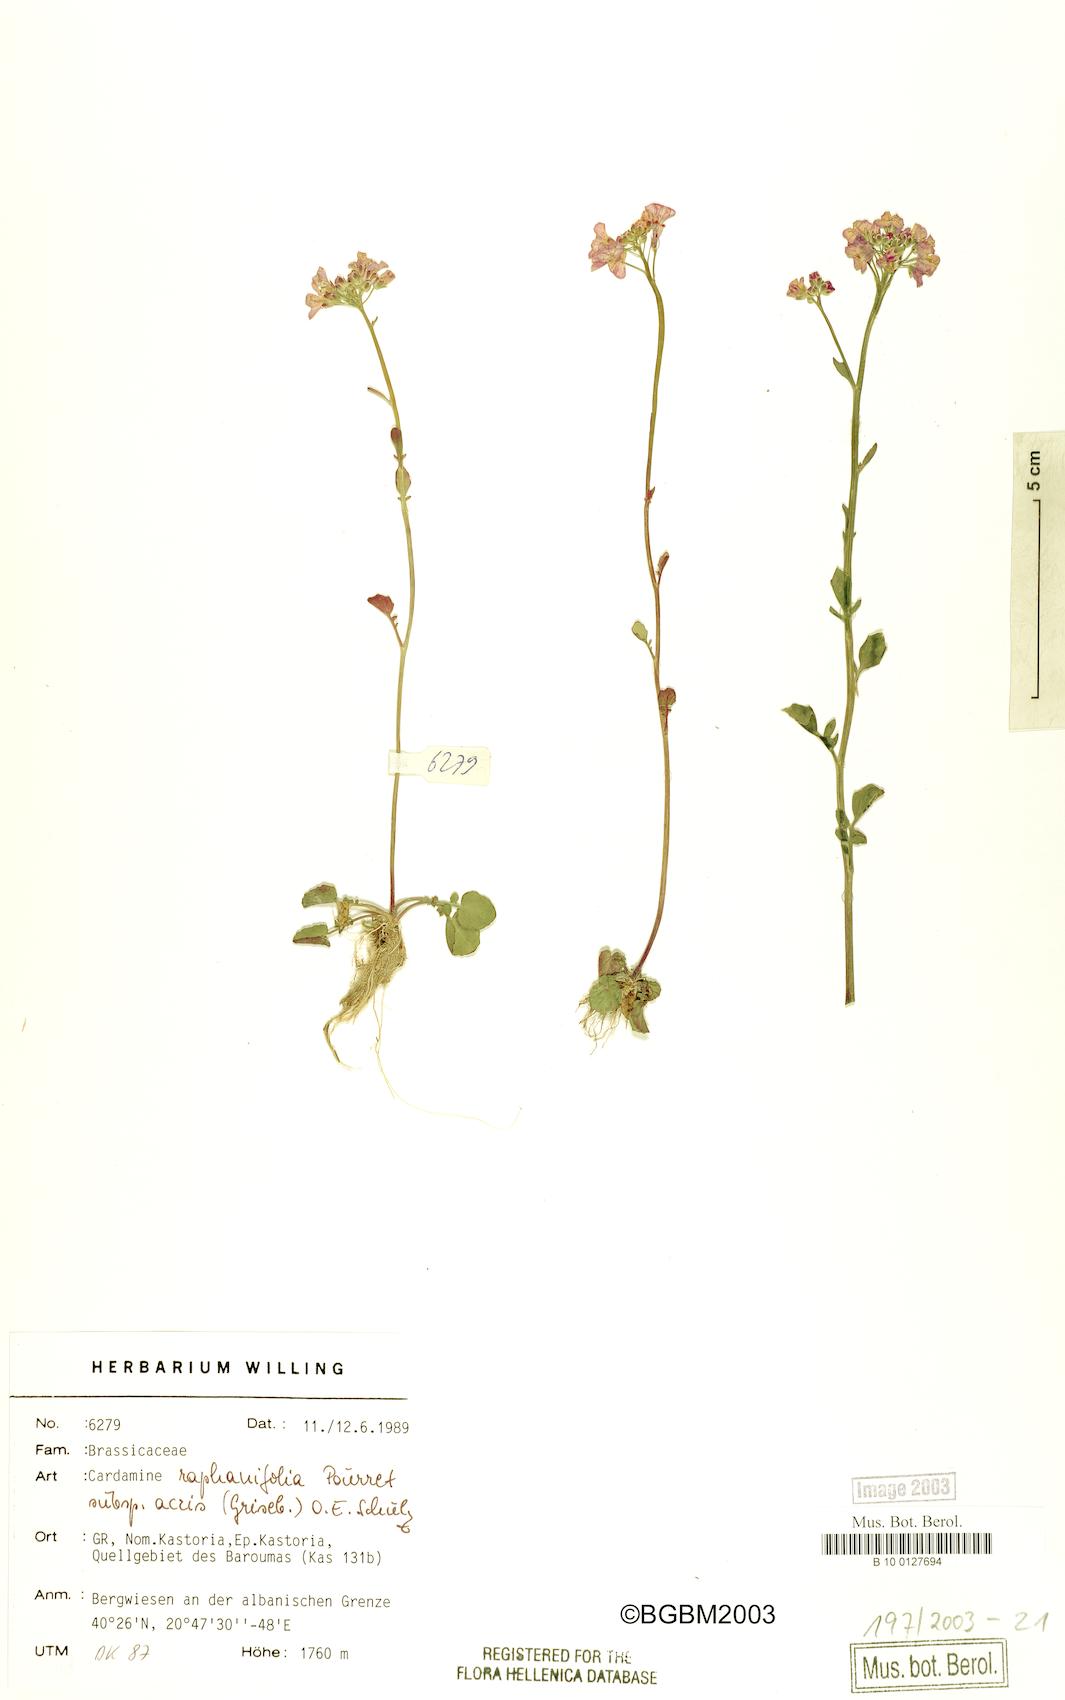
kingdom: Plantae
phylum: Tracheophyta
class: Magnoliopsida
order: Brassicales
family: Brassicaceae
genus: Cardamine
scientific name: Cardamine raphanifolia
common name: Greater cuckooflower
